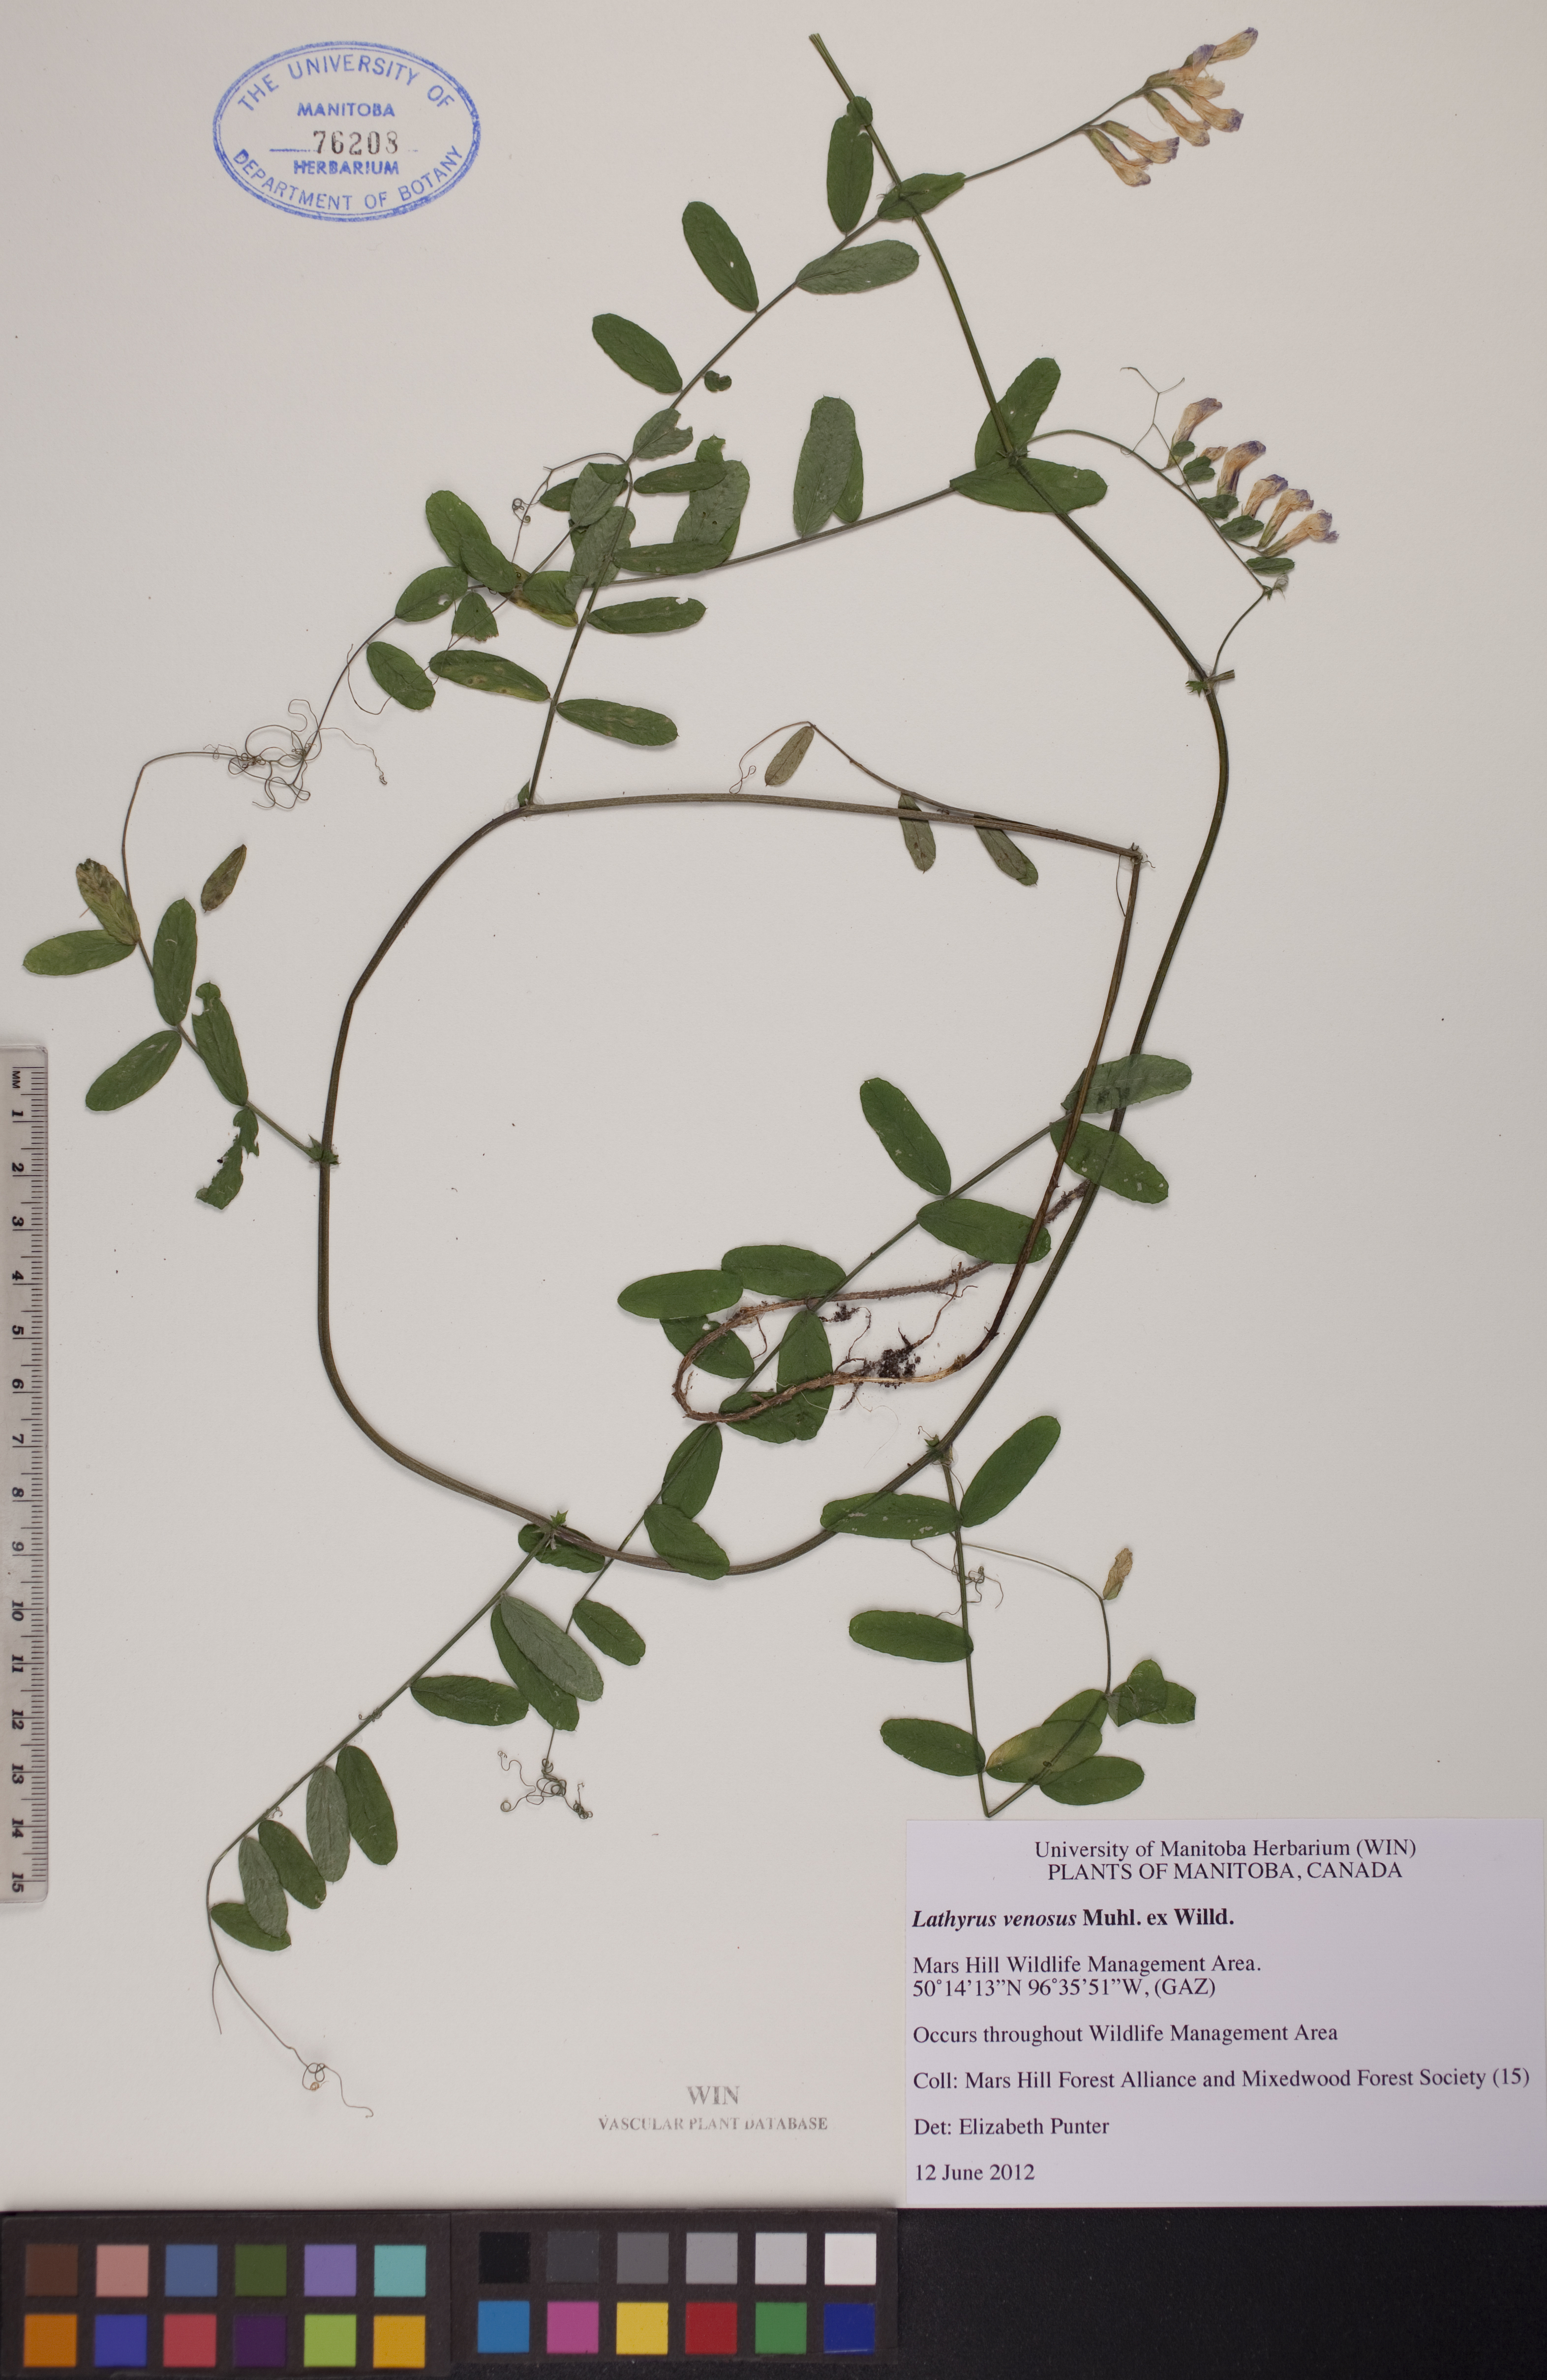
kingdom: Plantae
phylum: Tracheophyta
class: Magnoliopsida
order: Fabales
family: Fabaceae
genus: Lathyrus
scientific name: Lathyrus venosus
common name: Forest-pea
